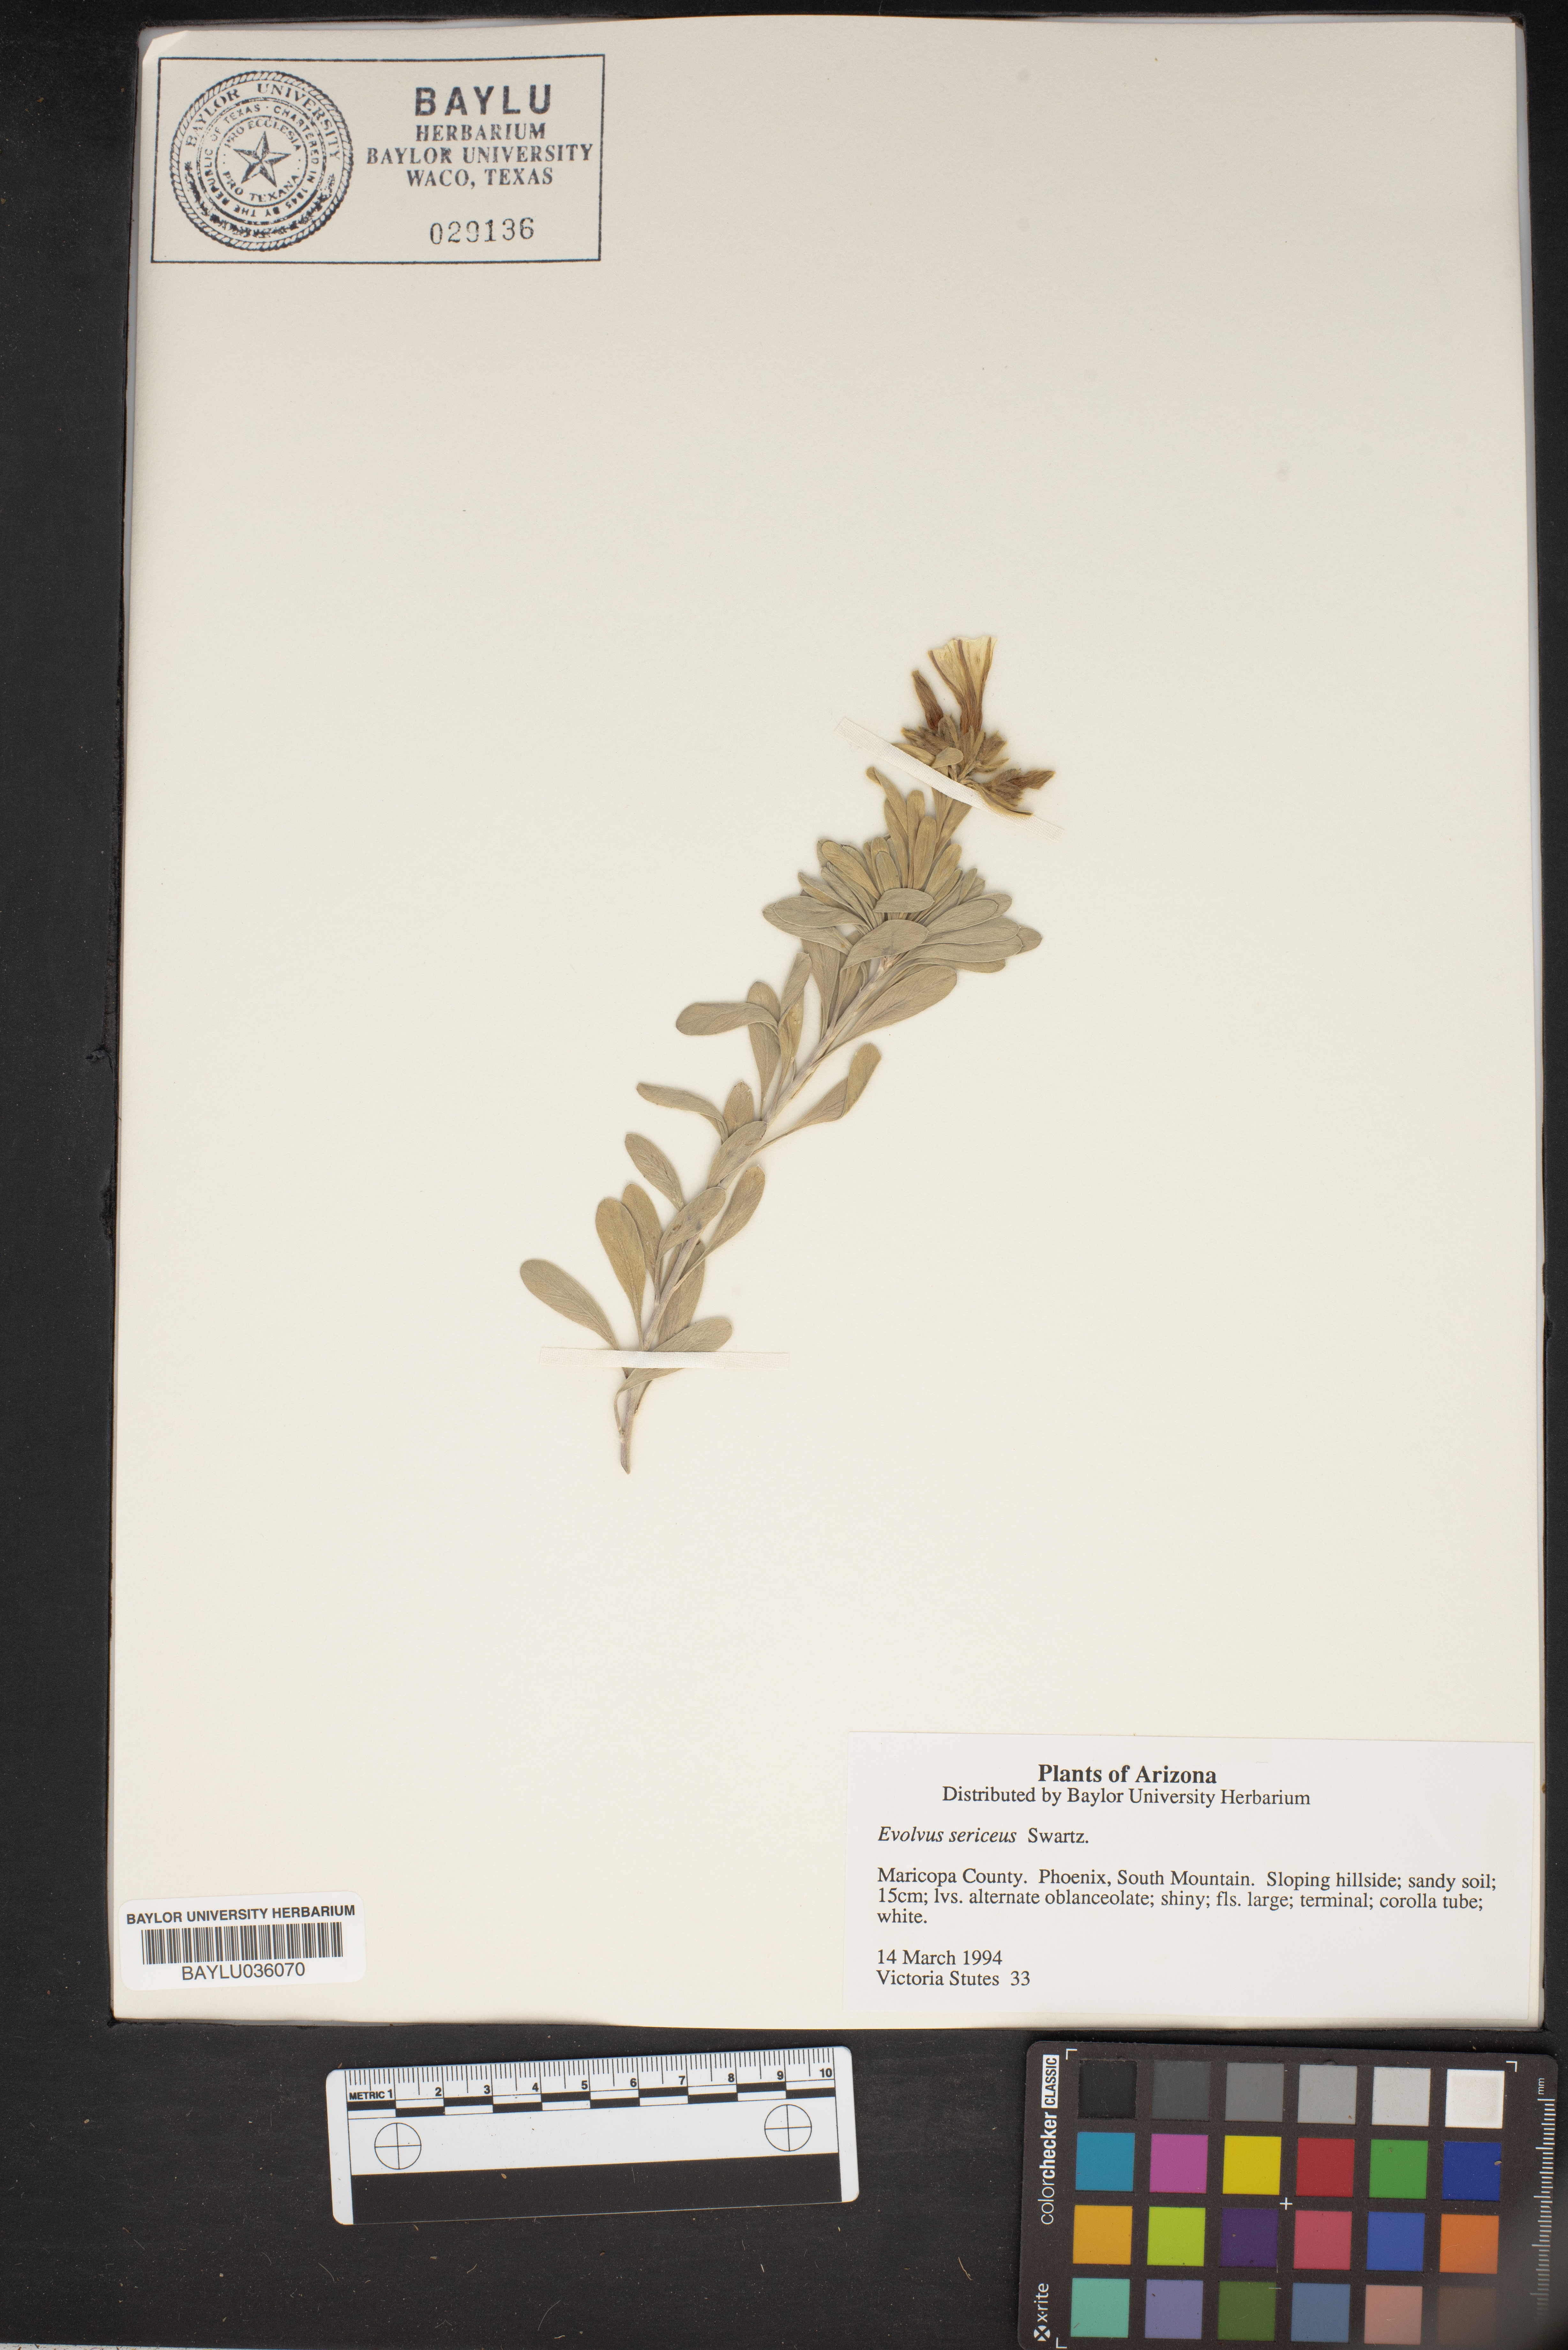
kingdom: Plantae
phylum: Tracheophyta
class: Magnoliopsida
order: Solanales
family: Convolvulaceae
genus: Evolvulus
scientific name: Evolvulus sericeus
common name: Blue dots
